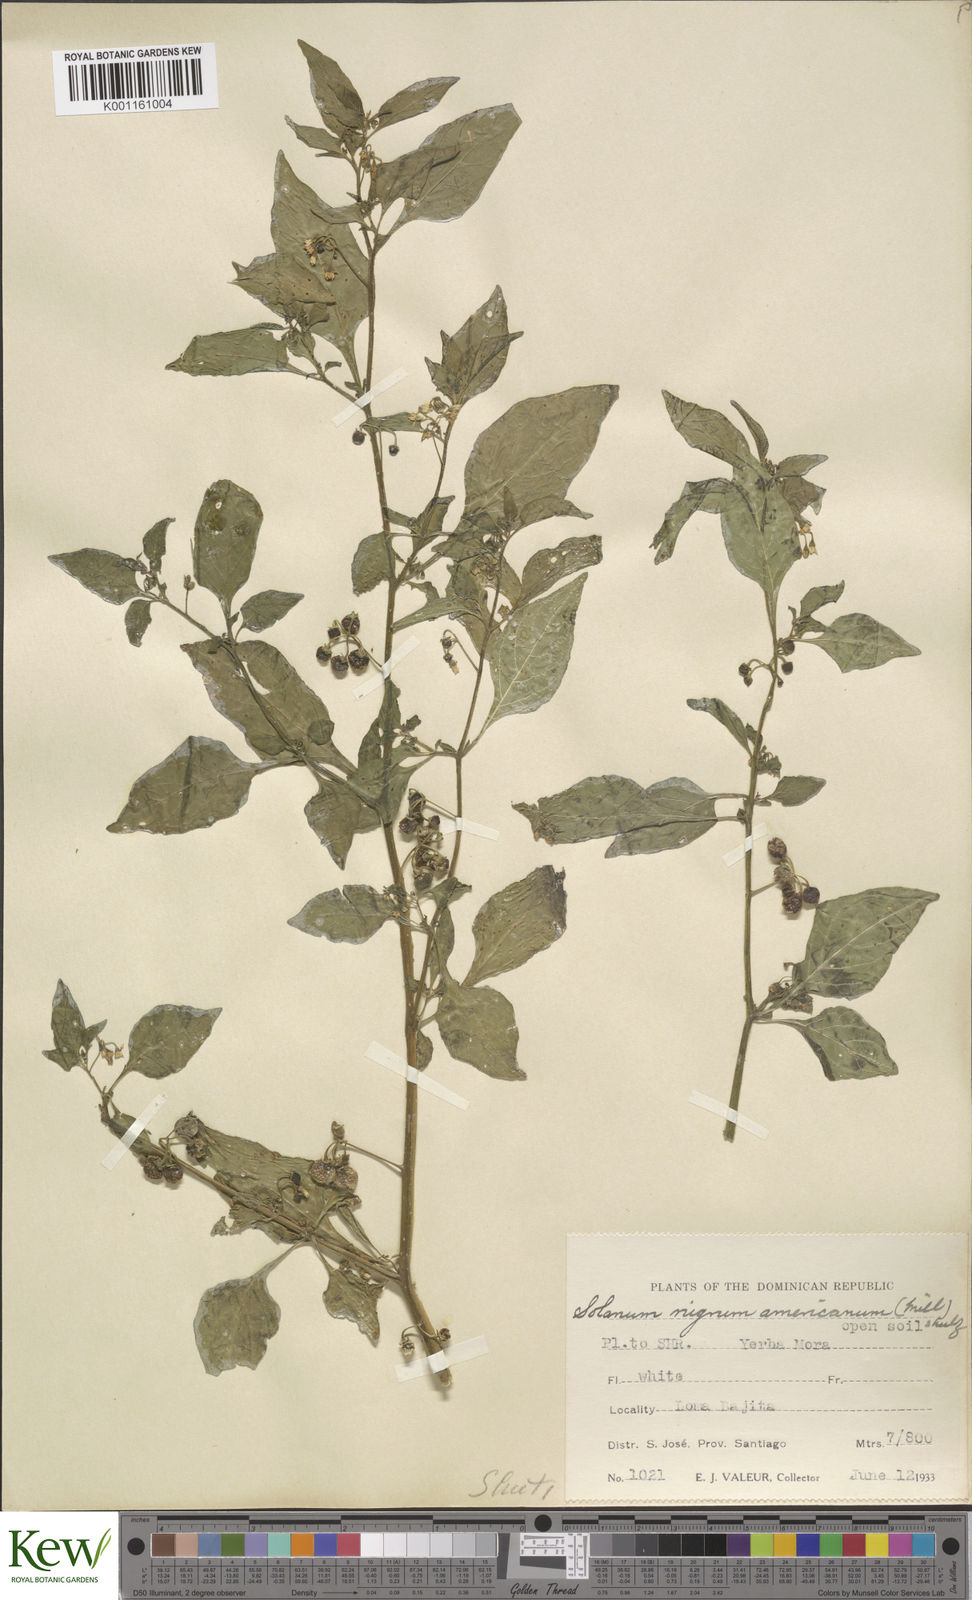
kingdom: Plantae
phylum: Tracheophyta
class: Magnoliopsida
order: Solanales
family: Solanaceae
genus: Solanum
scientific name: Solanum americanum
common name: American black nightshade
